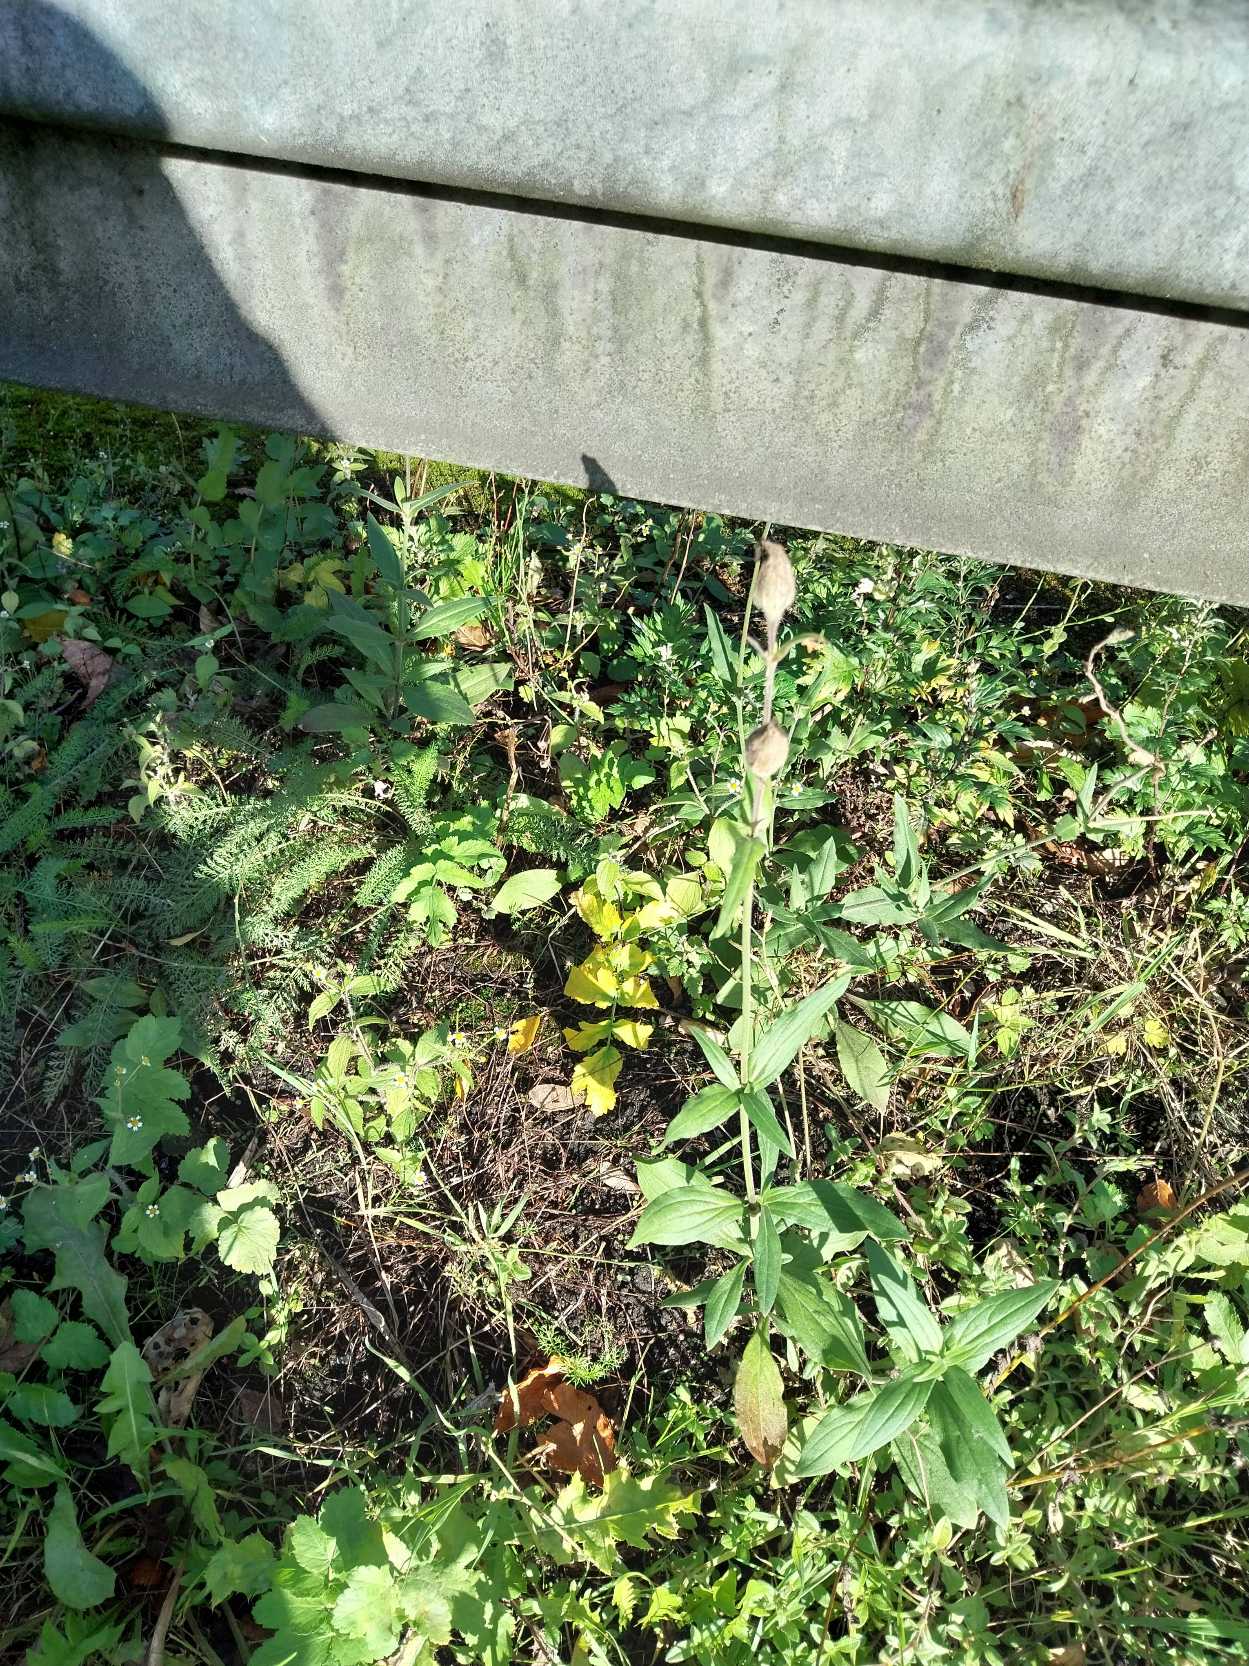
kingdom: Plantae
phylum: Tracheophyta
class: Magnoliopsida
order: Caryophyllales
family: Caryophyllaceae
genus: Silene
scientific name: Silene latifolia
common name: Aftenpragtstjerne
